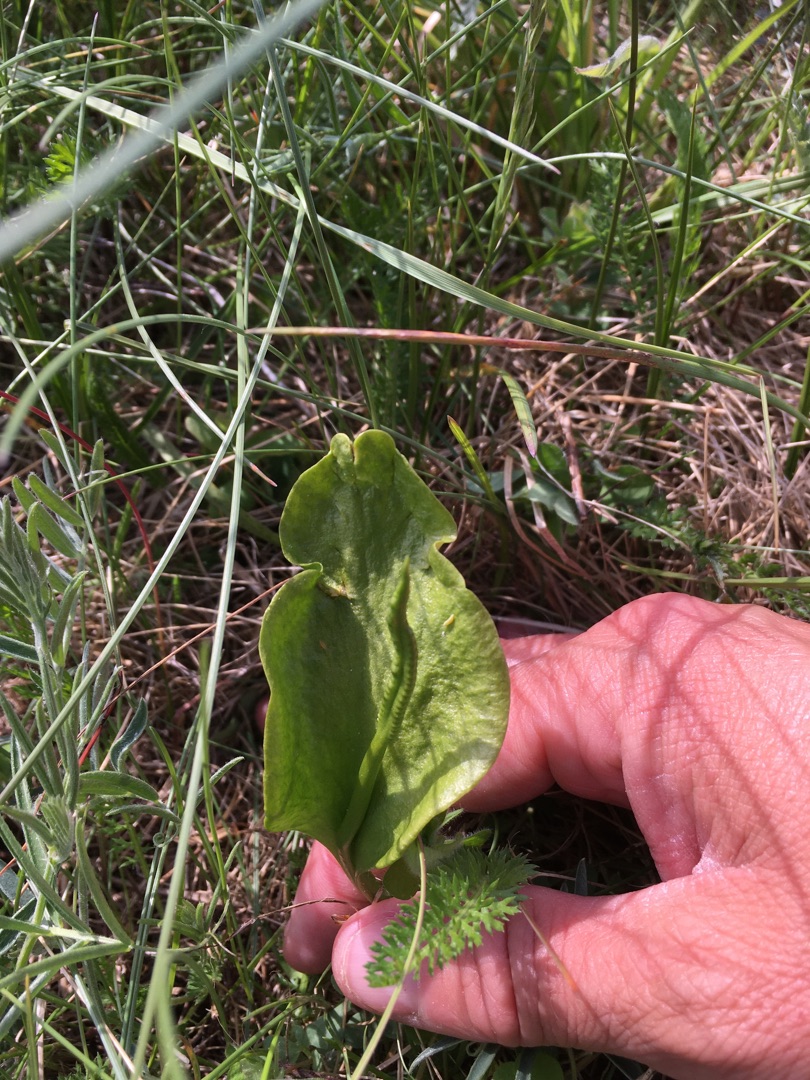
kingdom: Plantae
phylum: Tracheophyta
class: Polypodiopsida
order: Ophioglossales
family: Ophioglossaceae
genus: Ophioglossum
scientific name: Ophioglossum vulgatum
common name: Slangetunge
